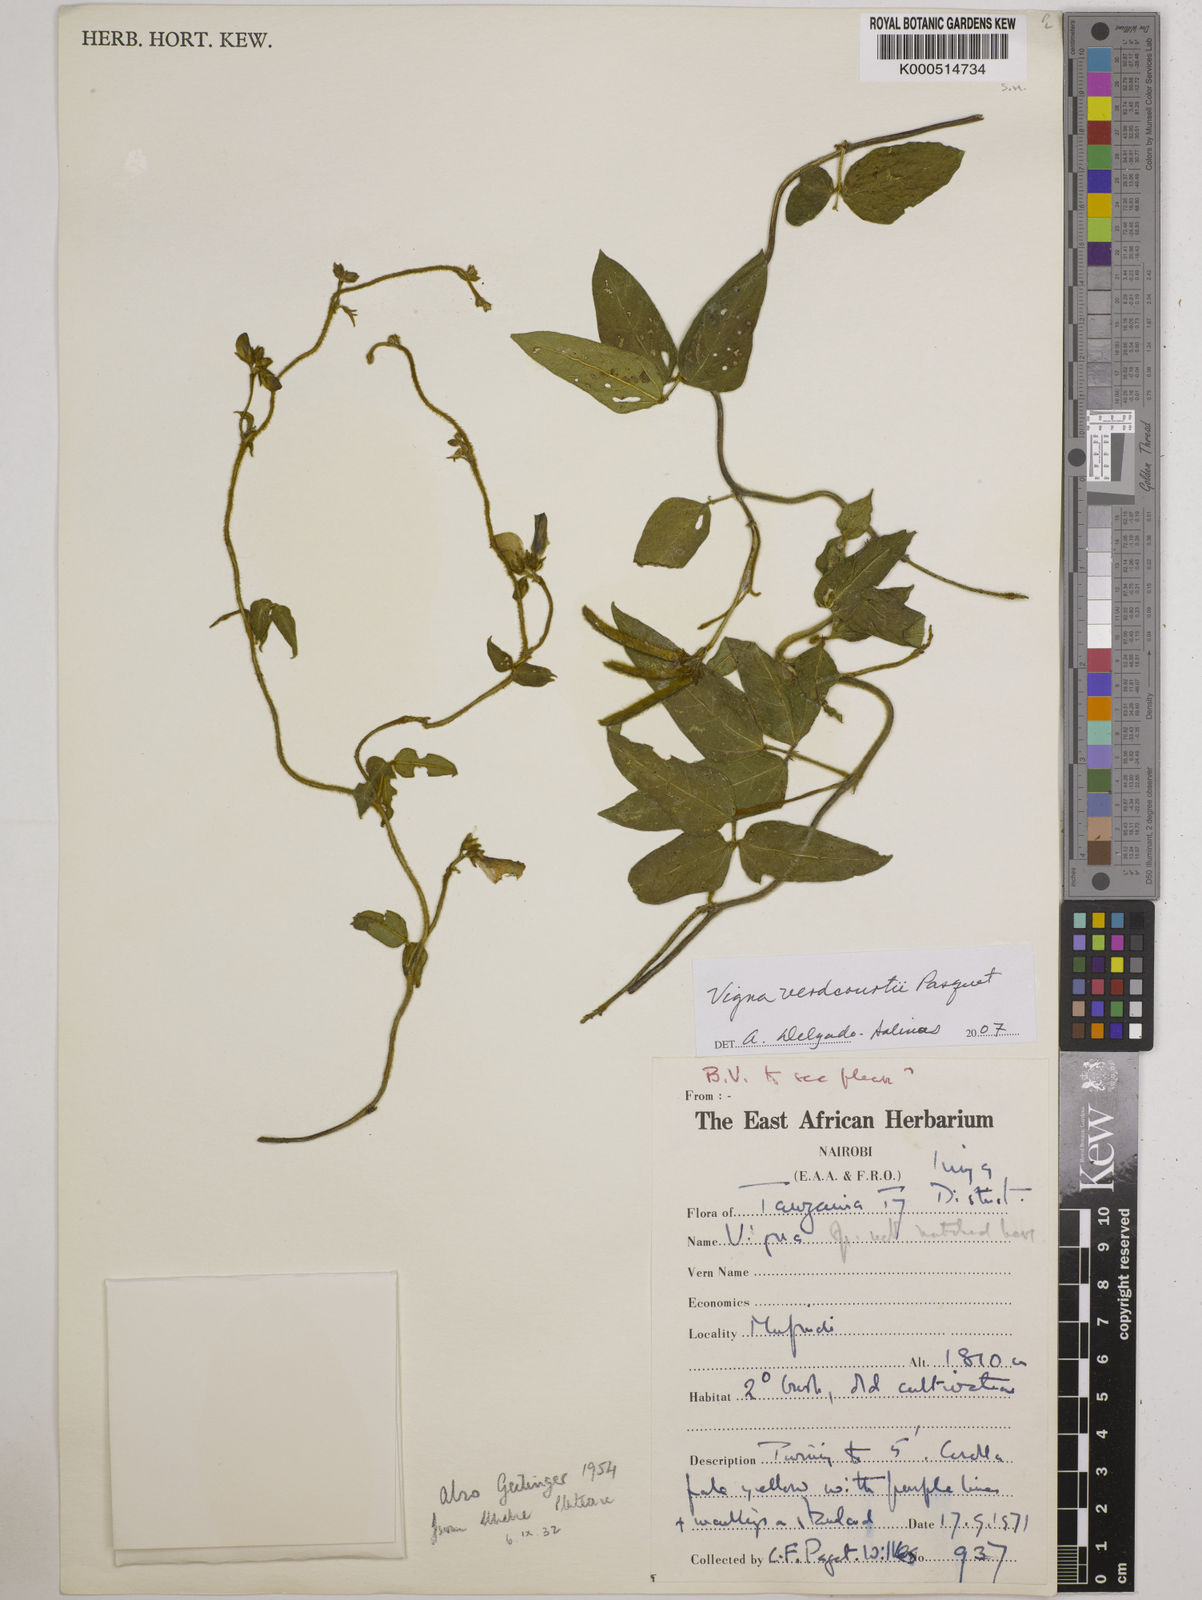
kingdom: Plantae
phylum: Tracheophyta
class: Magnoliopsida
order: Fabales
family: Fabaceae
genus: Vigna
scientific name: Vigna
